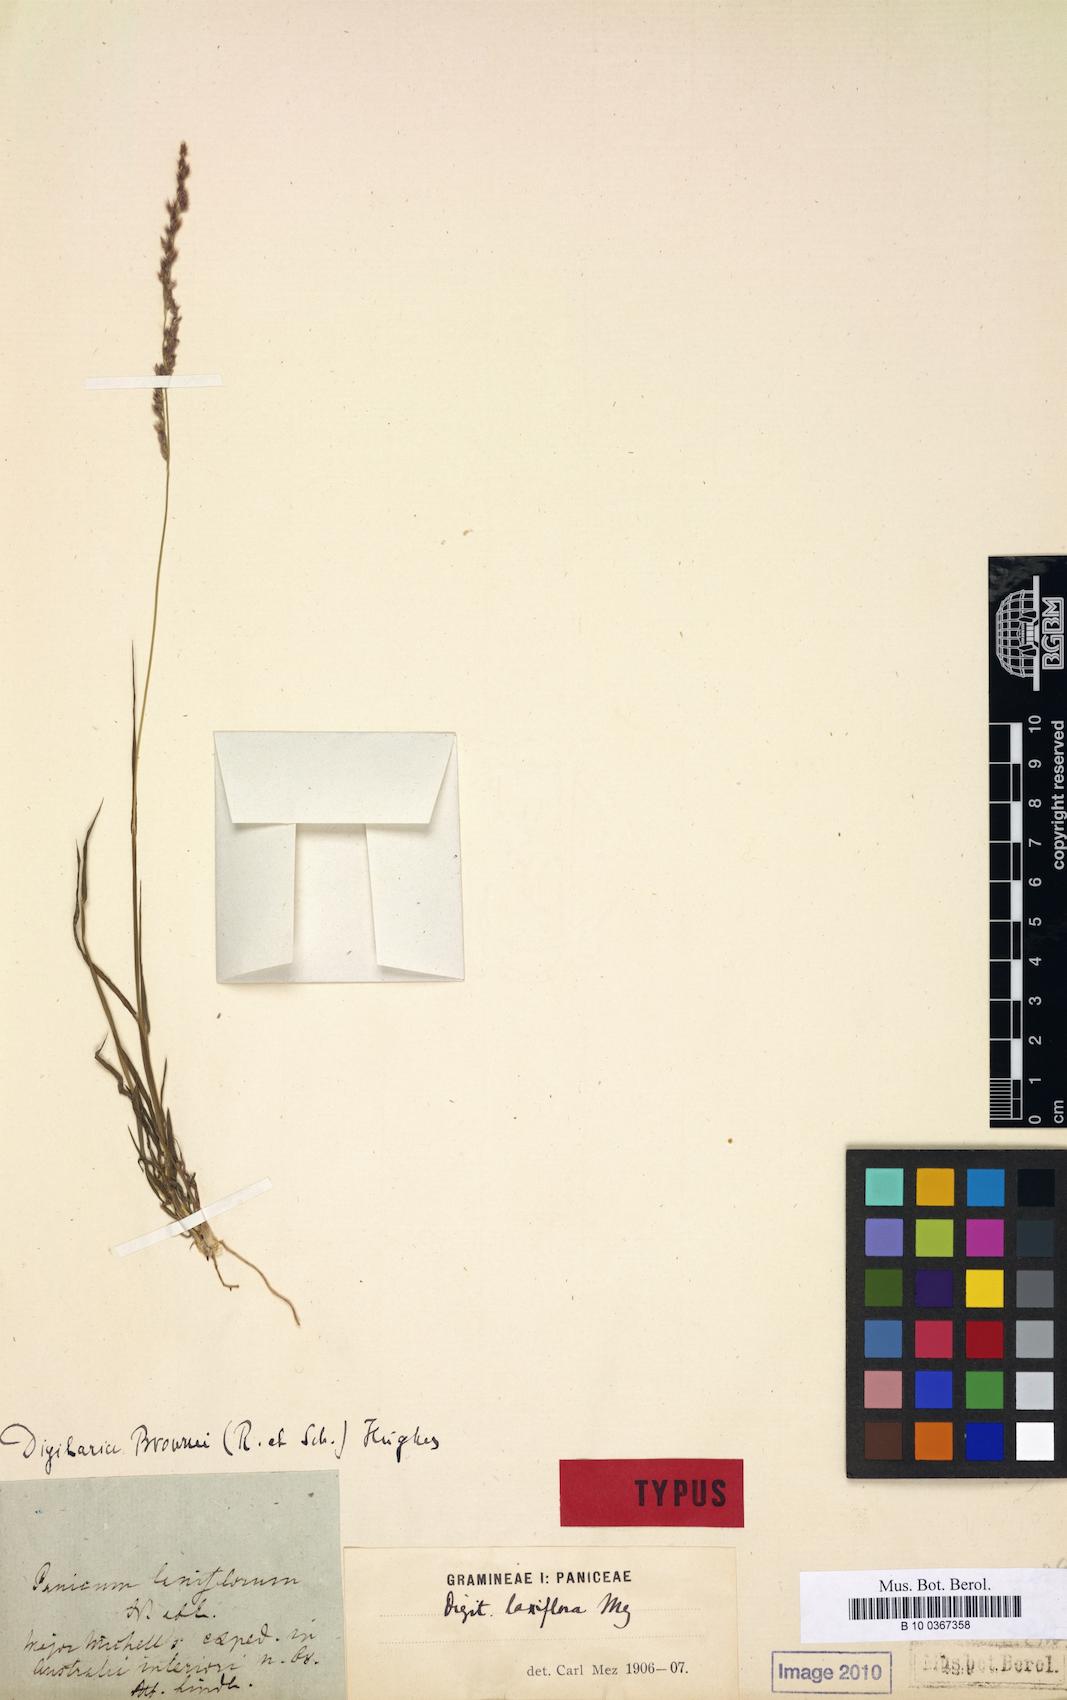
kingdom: Plantae
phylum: Tracheophyta
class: Liliopsida
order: Poales
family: Poaceae
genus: Digitaria
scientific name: Digitaria brownii
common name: Cotton grass
